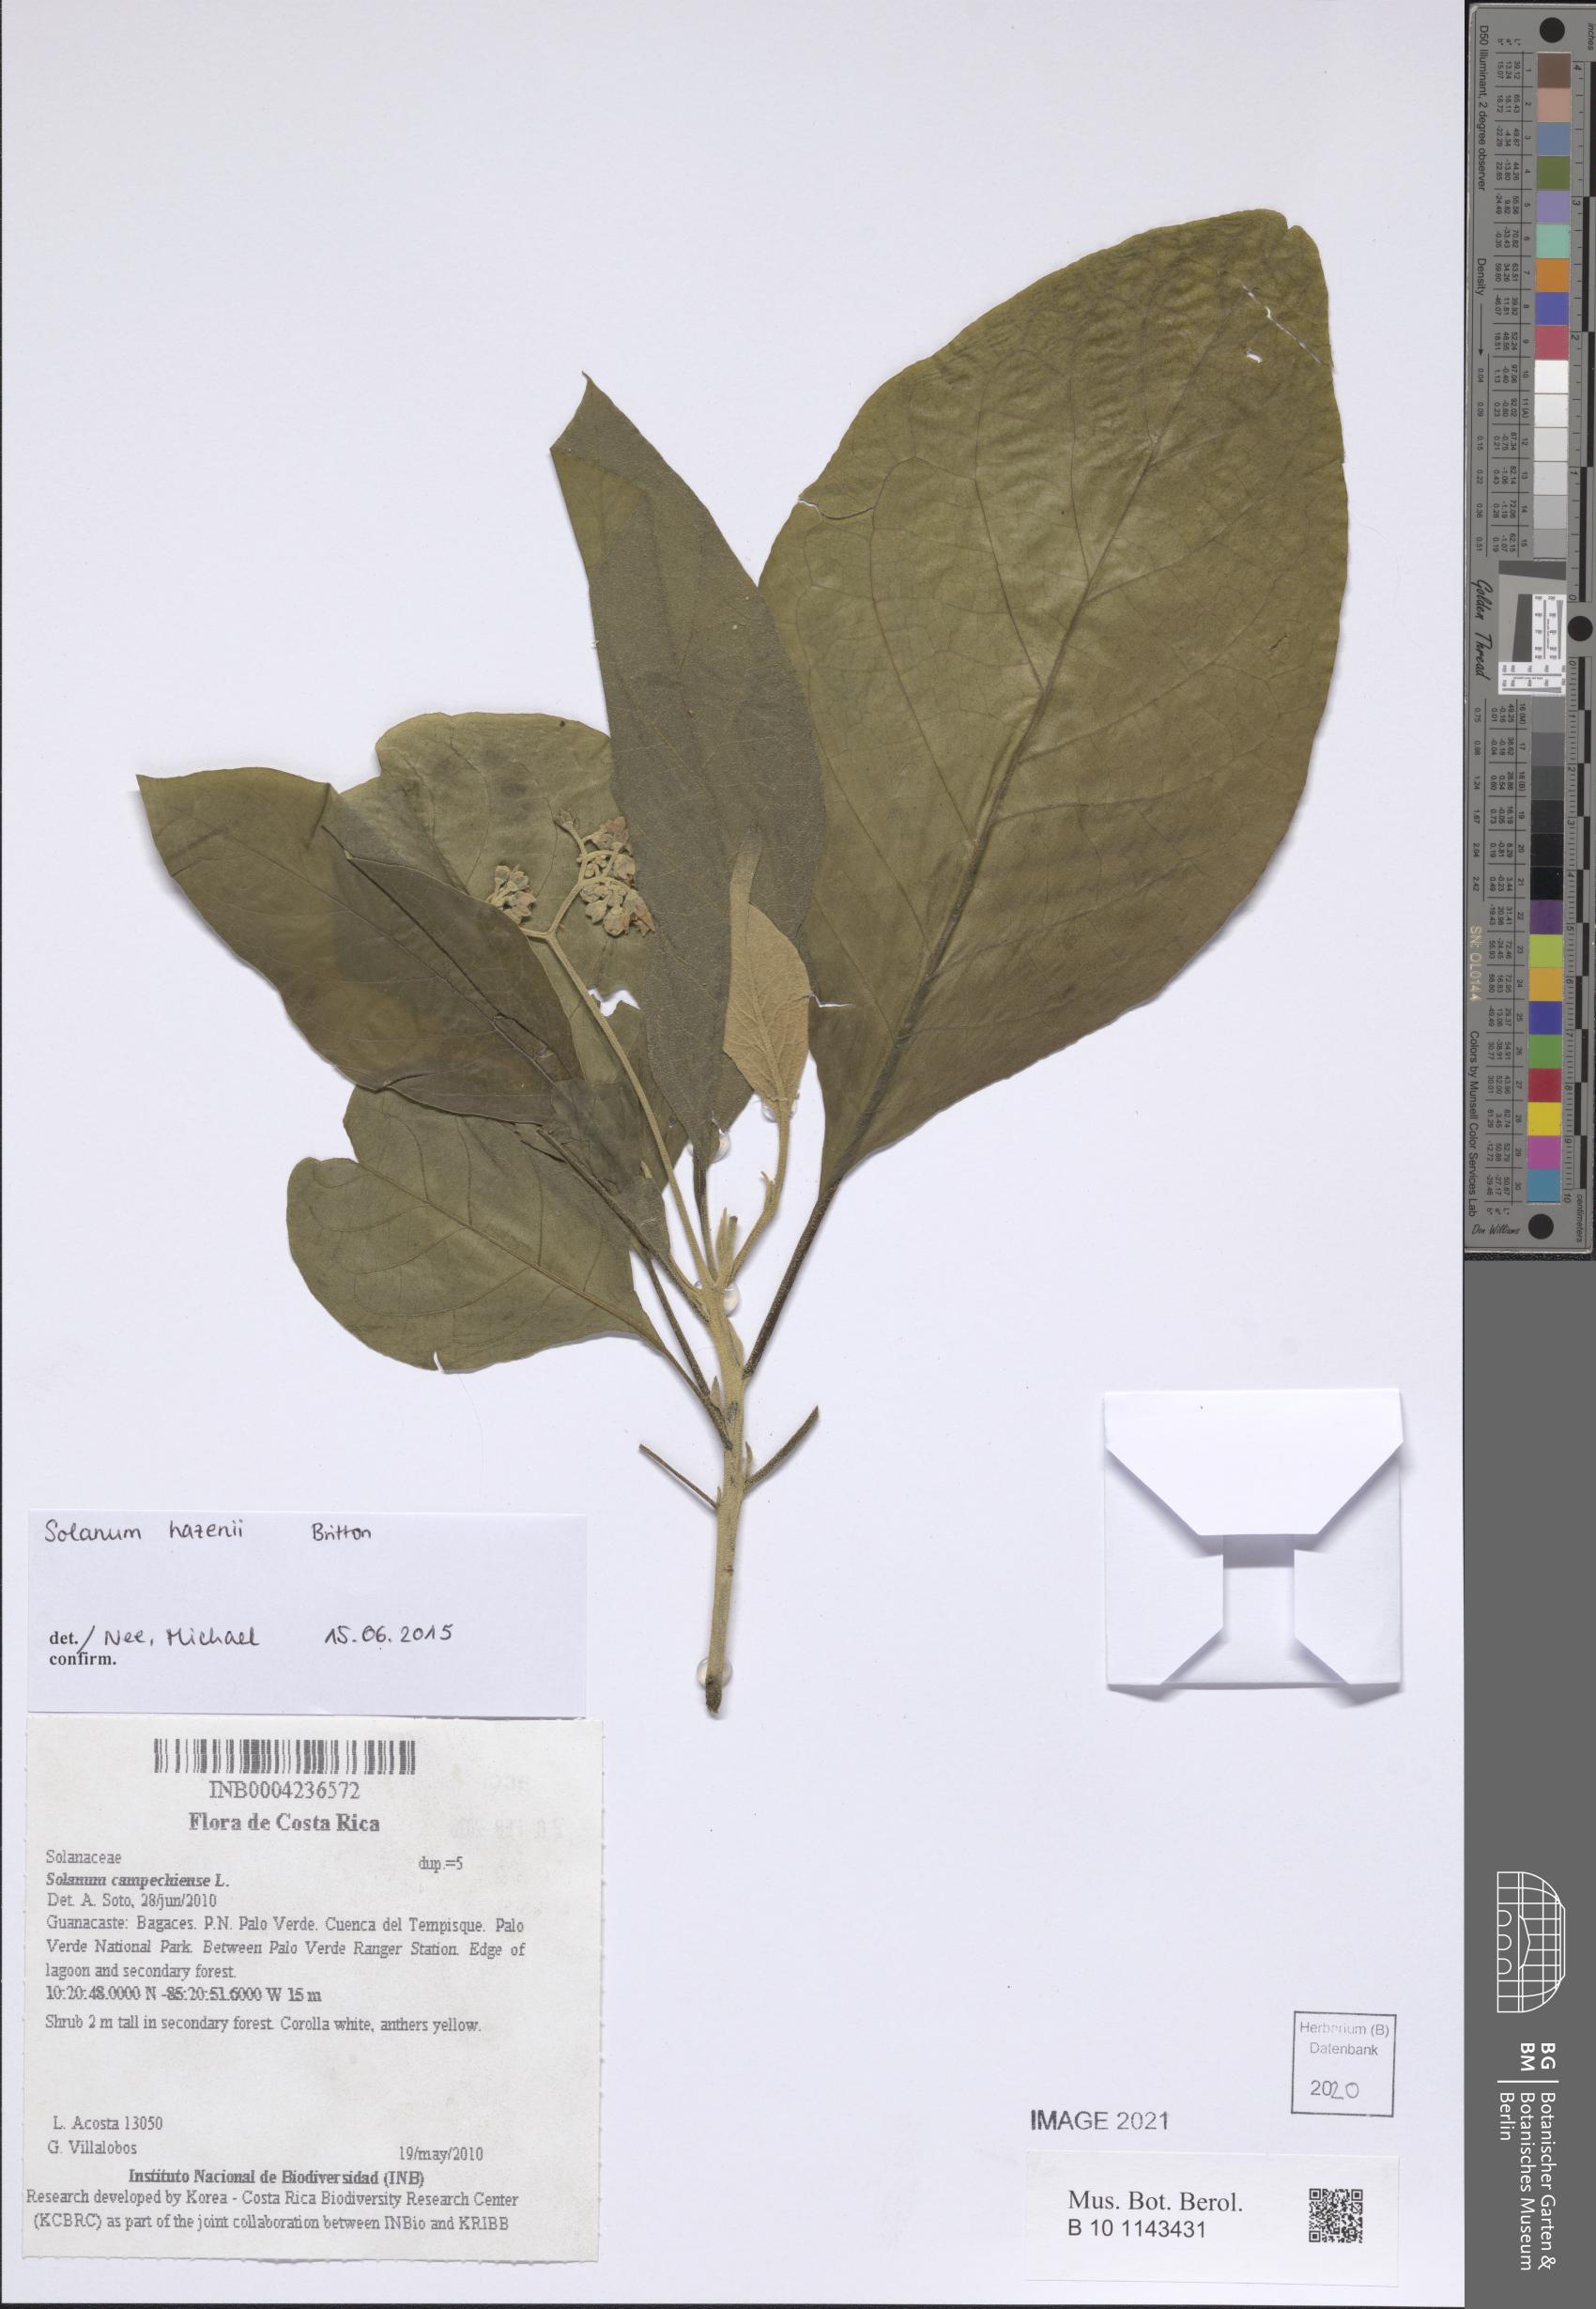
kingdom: Plantae
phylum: Tracheophyta
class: Magnoliopsida
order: Solanales
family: Solanaceae
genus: Solanum
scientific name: Solanum campechiense
